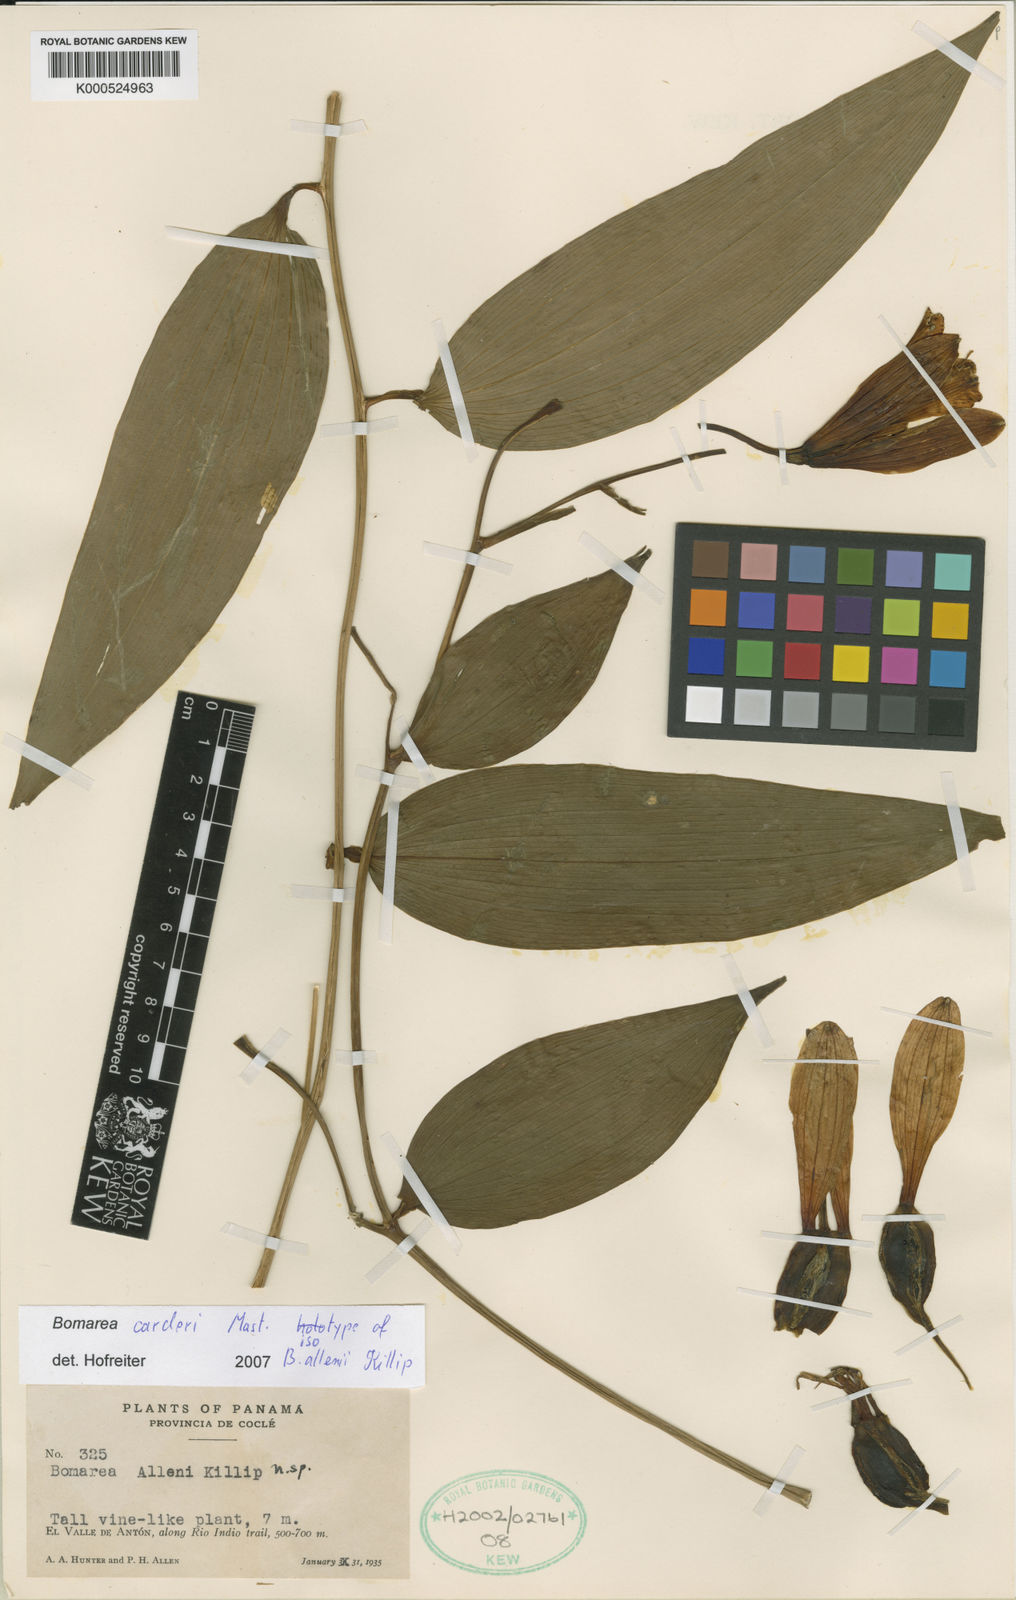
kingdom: Plantae
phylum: Tracheophyta
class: Liliopsida
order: Liliales
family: Alstroemeriaceae
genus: Bomarea
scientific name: Bomarea carderi
